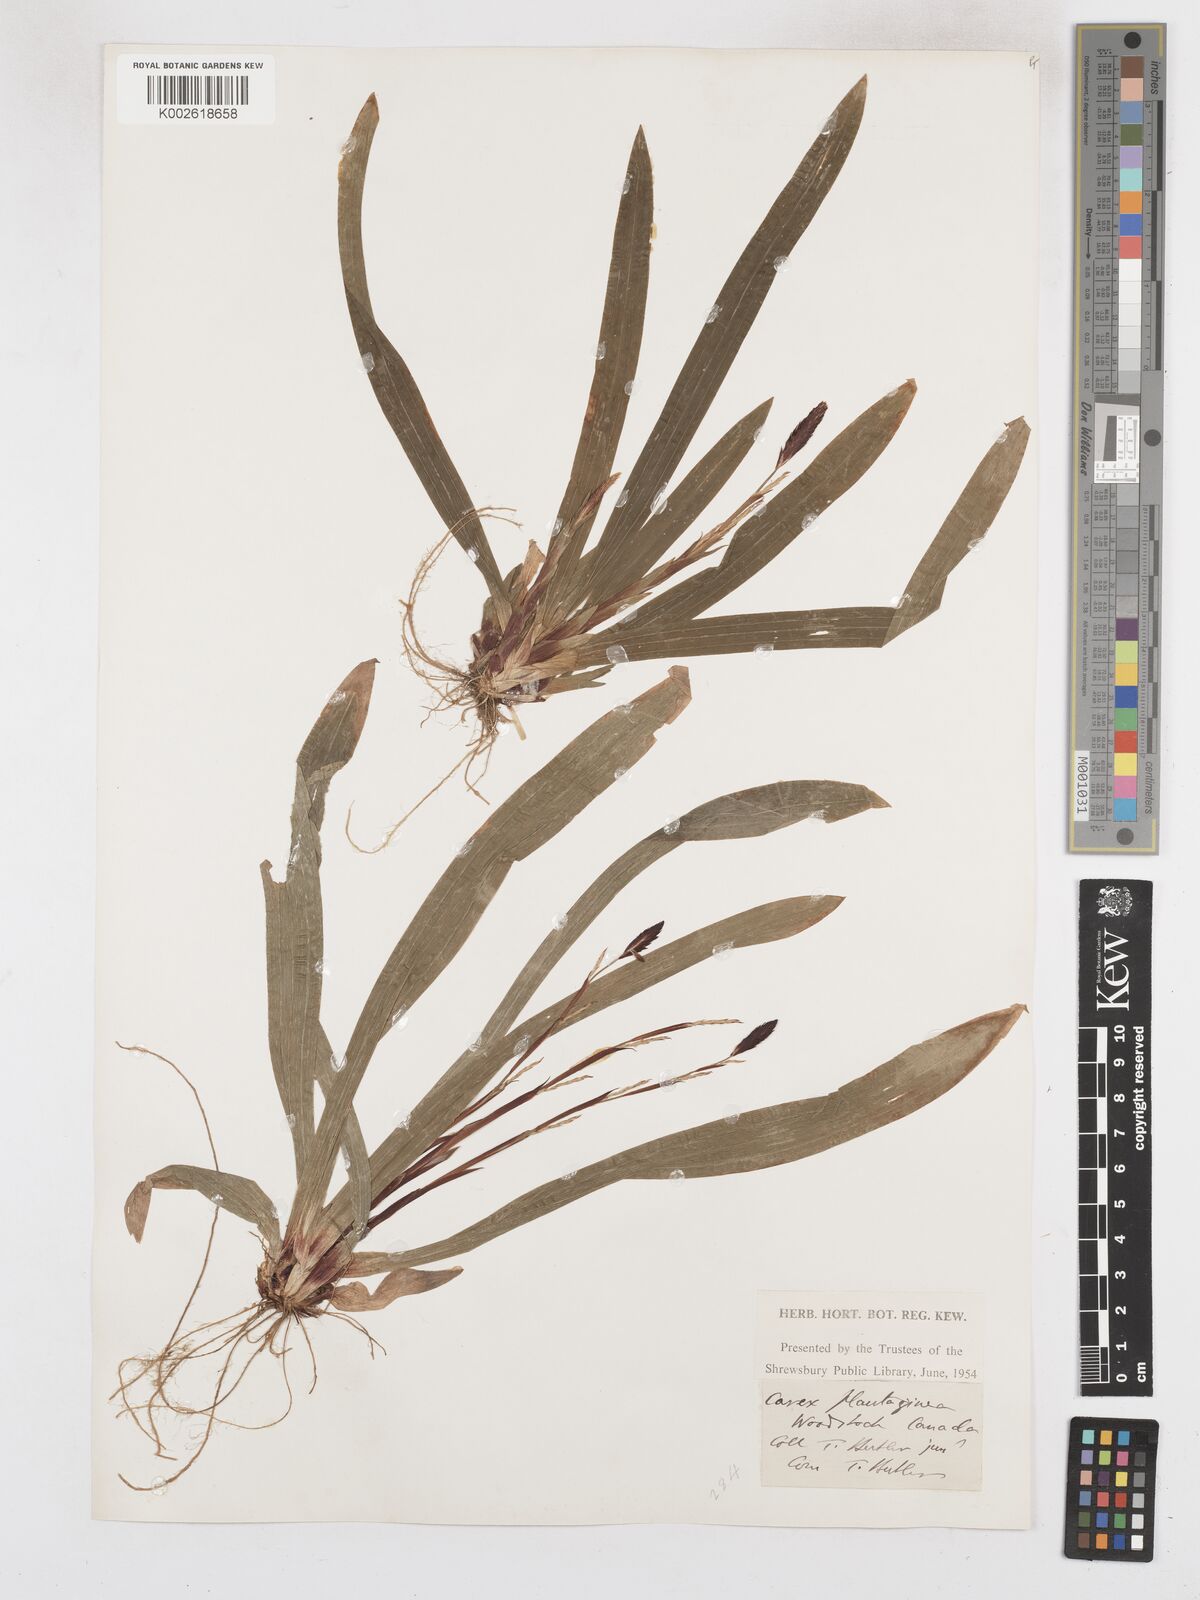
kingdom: Plantae
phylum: Tracheophyta
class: Liliopsida
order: Poales
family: Cyperaceae
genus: Carex
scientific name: Carex plantaginea
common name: Plantain-leaved sedge
